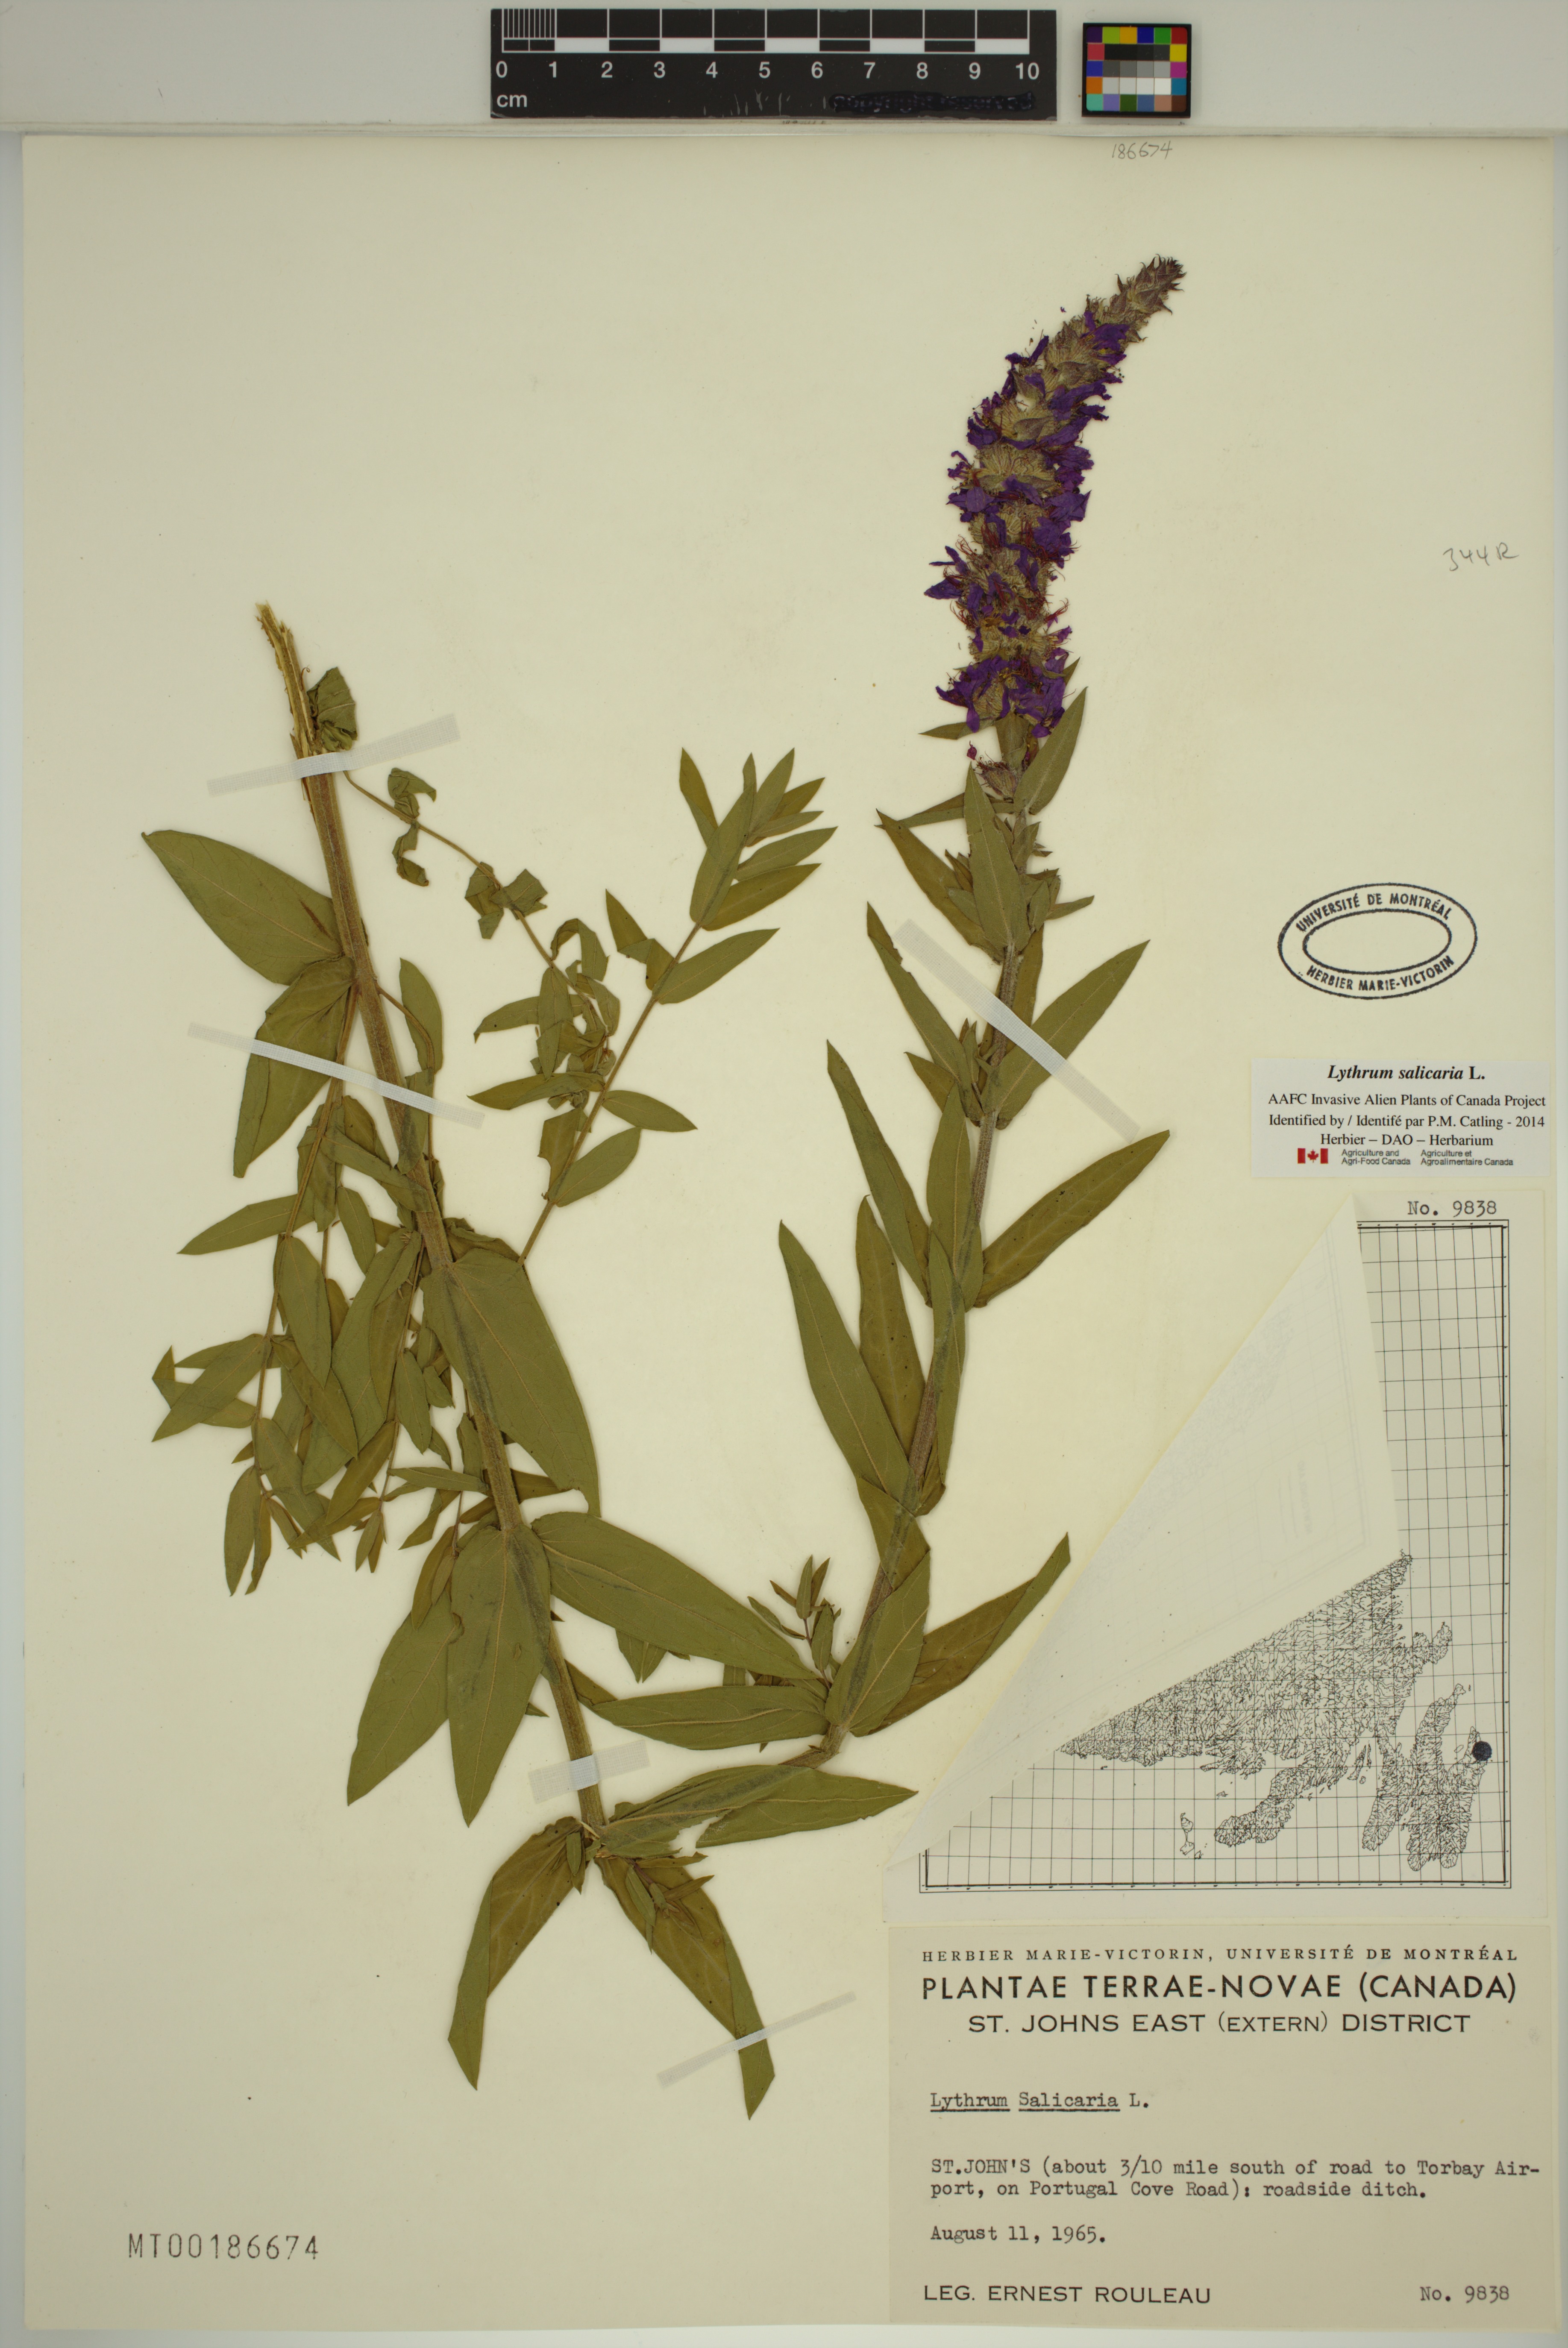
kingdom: Plantae
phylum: Tracheophyta
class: Magnoliopsida
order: Myrtales
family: Lythraceae
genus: Lythrum
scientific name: Lythrum salicaria
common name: Purple loosestrife
